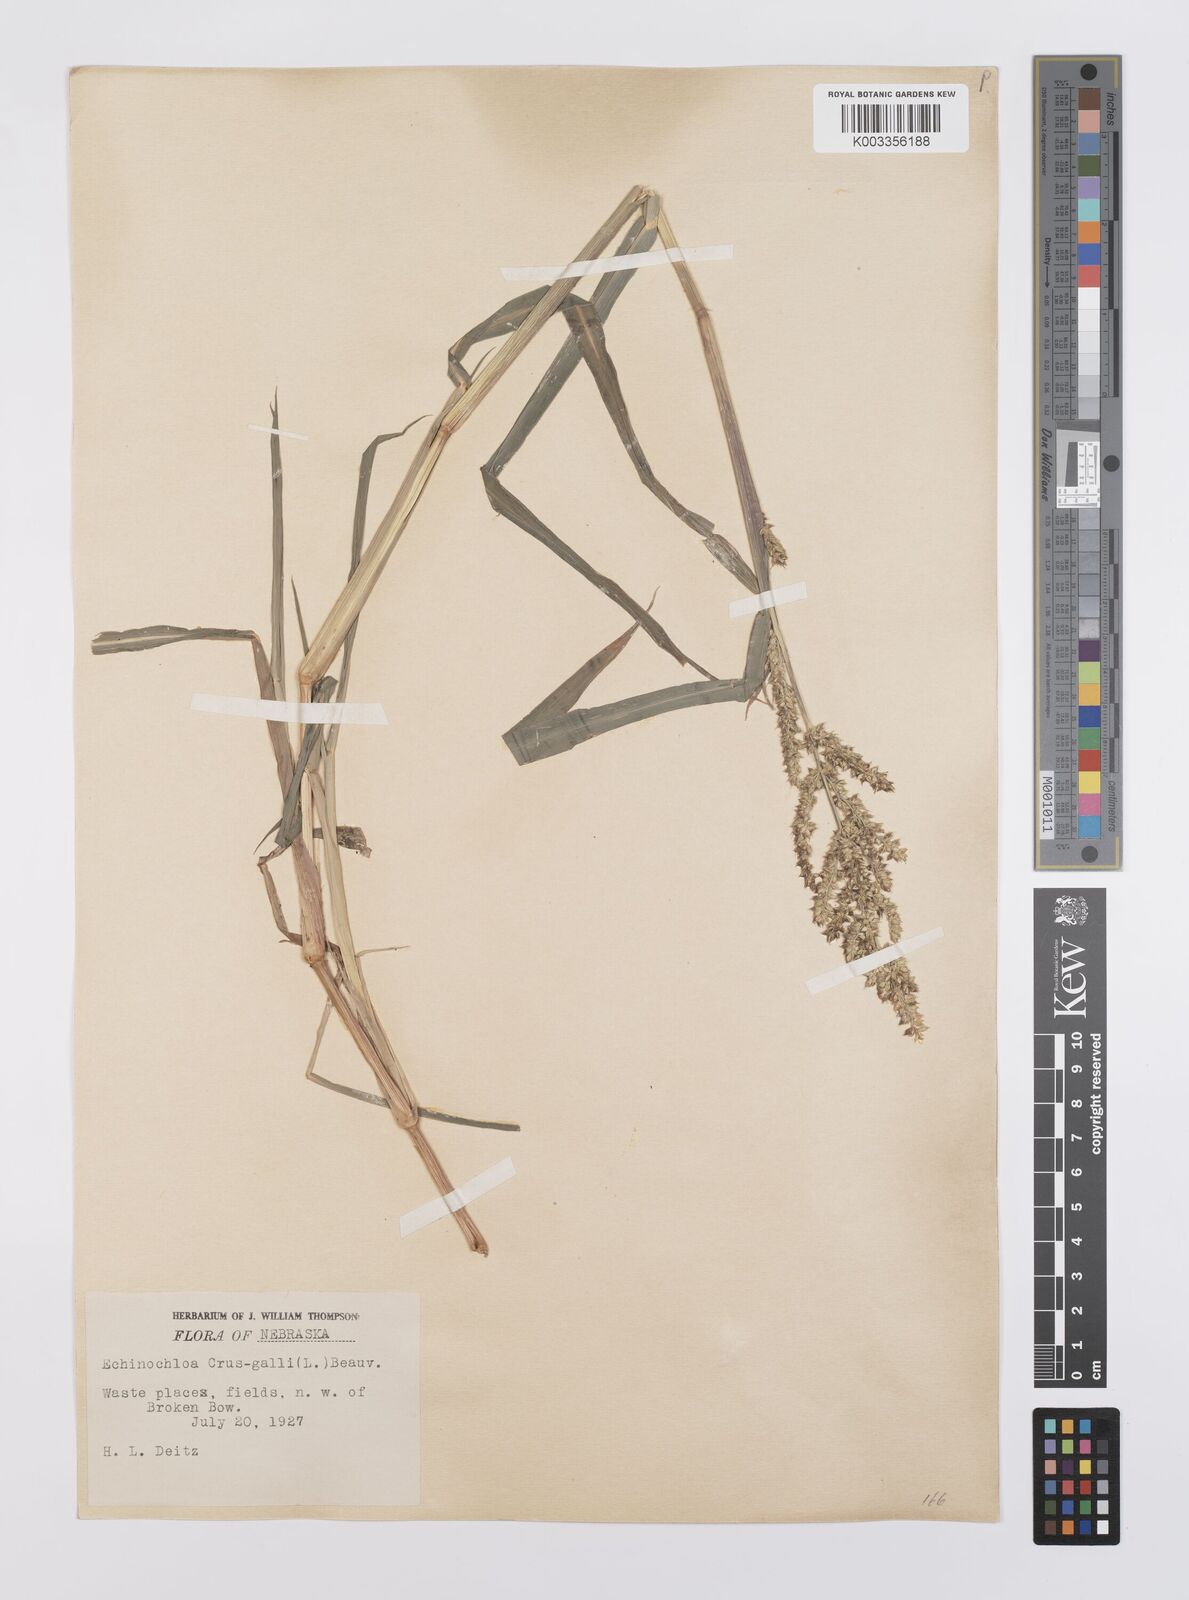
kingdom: Plantae
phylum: Tracheophyta
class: Liliopsida
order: Poales
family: Poaceae
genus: Echinochloa
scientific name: Echinochloa crus-galli
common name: Cockspur
